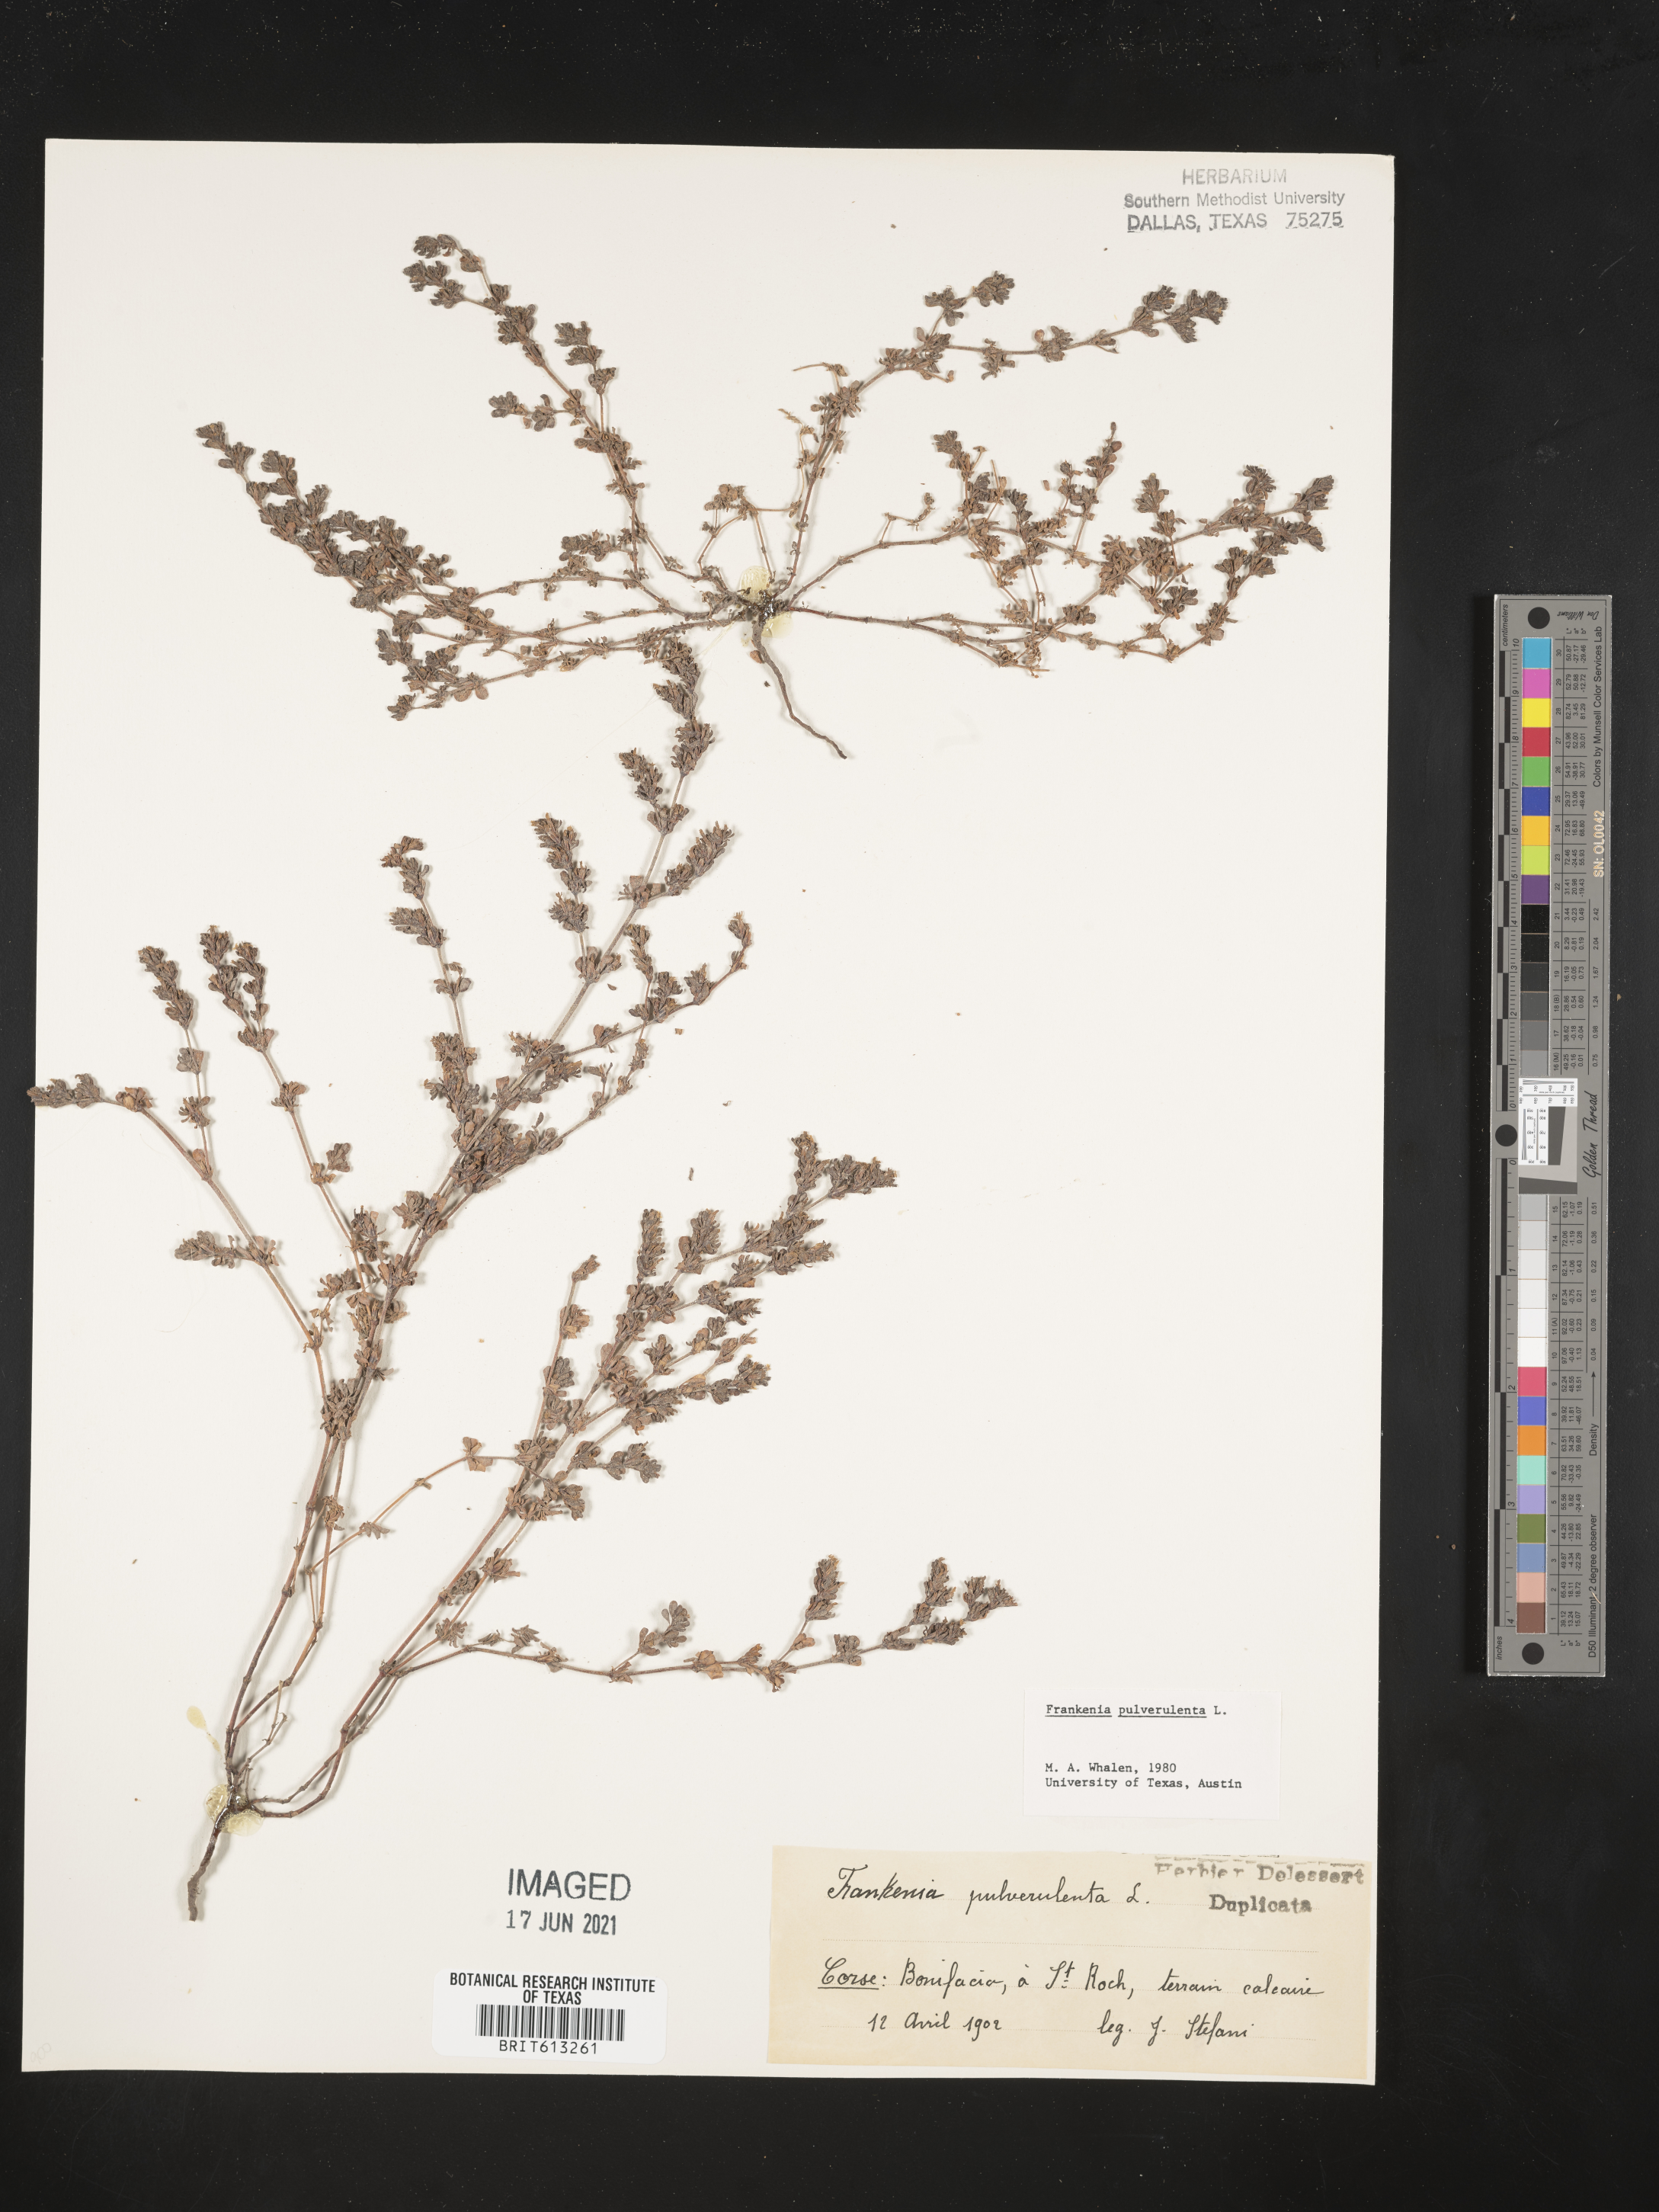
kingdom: Plantae
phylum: Tracheophyta
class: Magnoliopsida
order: Caryophyllales
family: Frankeniaceae
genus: Frankenia
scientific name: Frankenia pulverulenta
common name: European seaheath
